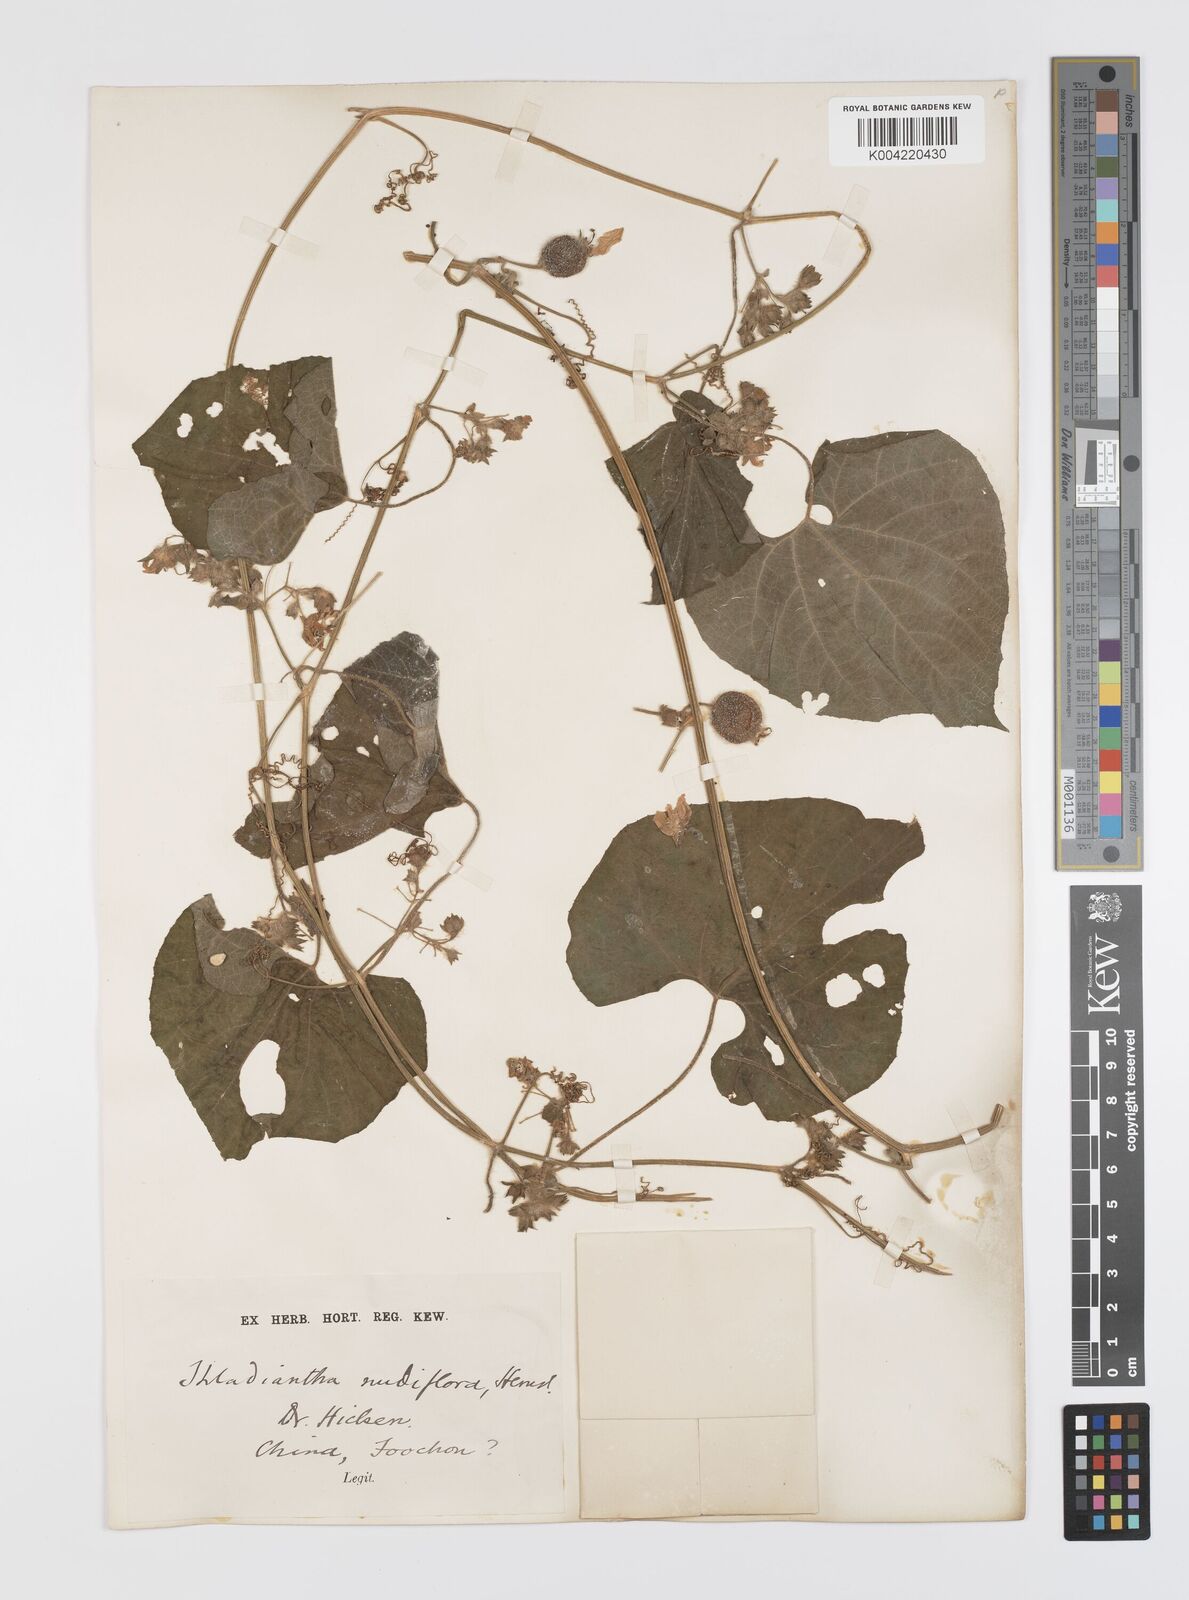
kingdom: Plantae
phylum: Tracheophyta
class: Magnoliopsida
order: Cucurbitales
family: Cucurbitaceae
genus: Thladiantha
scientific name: Thladiantha nudiflora
